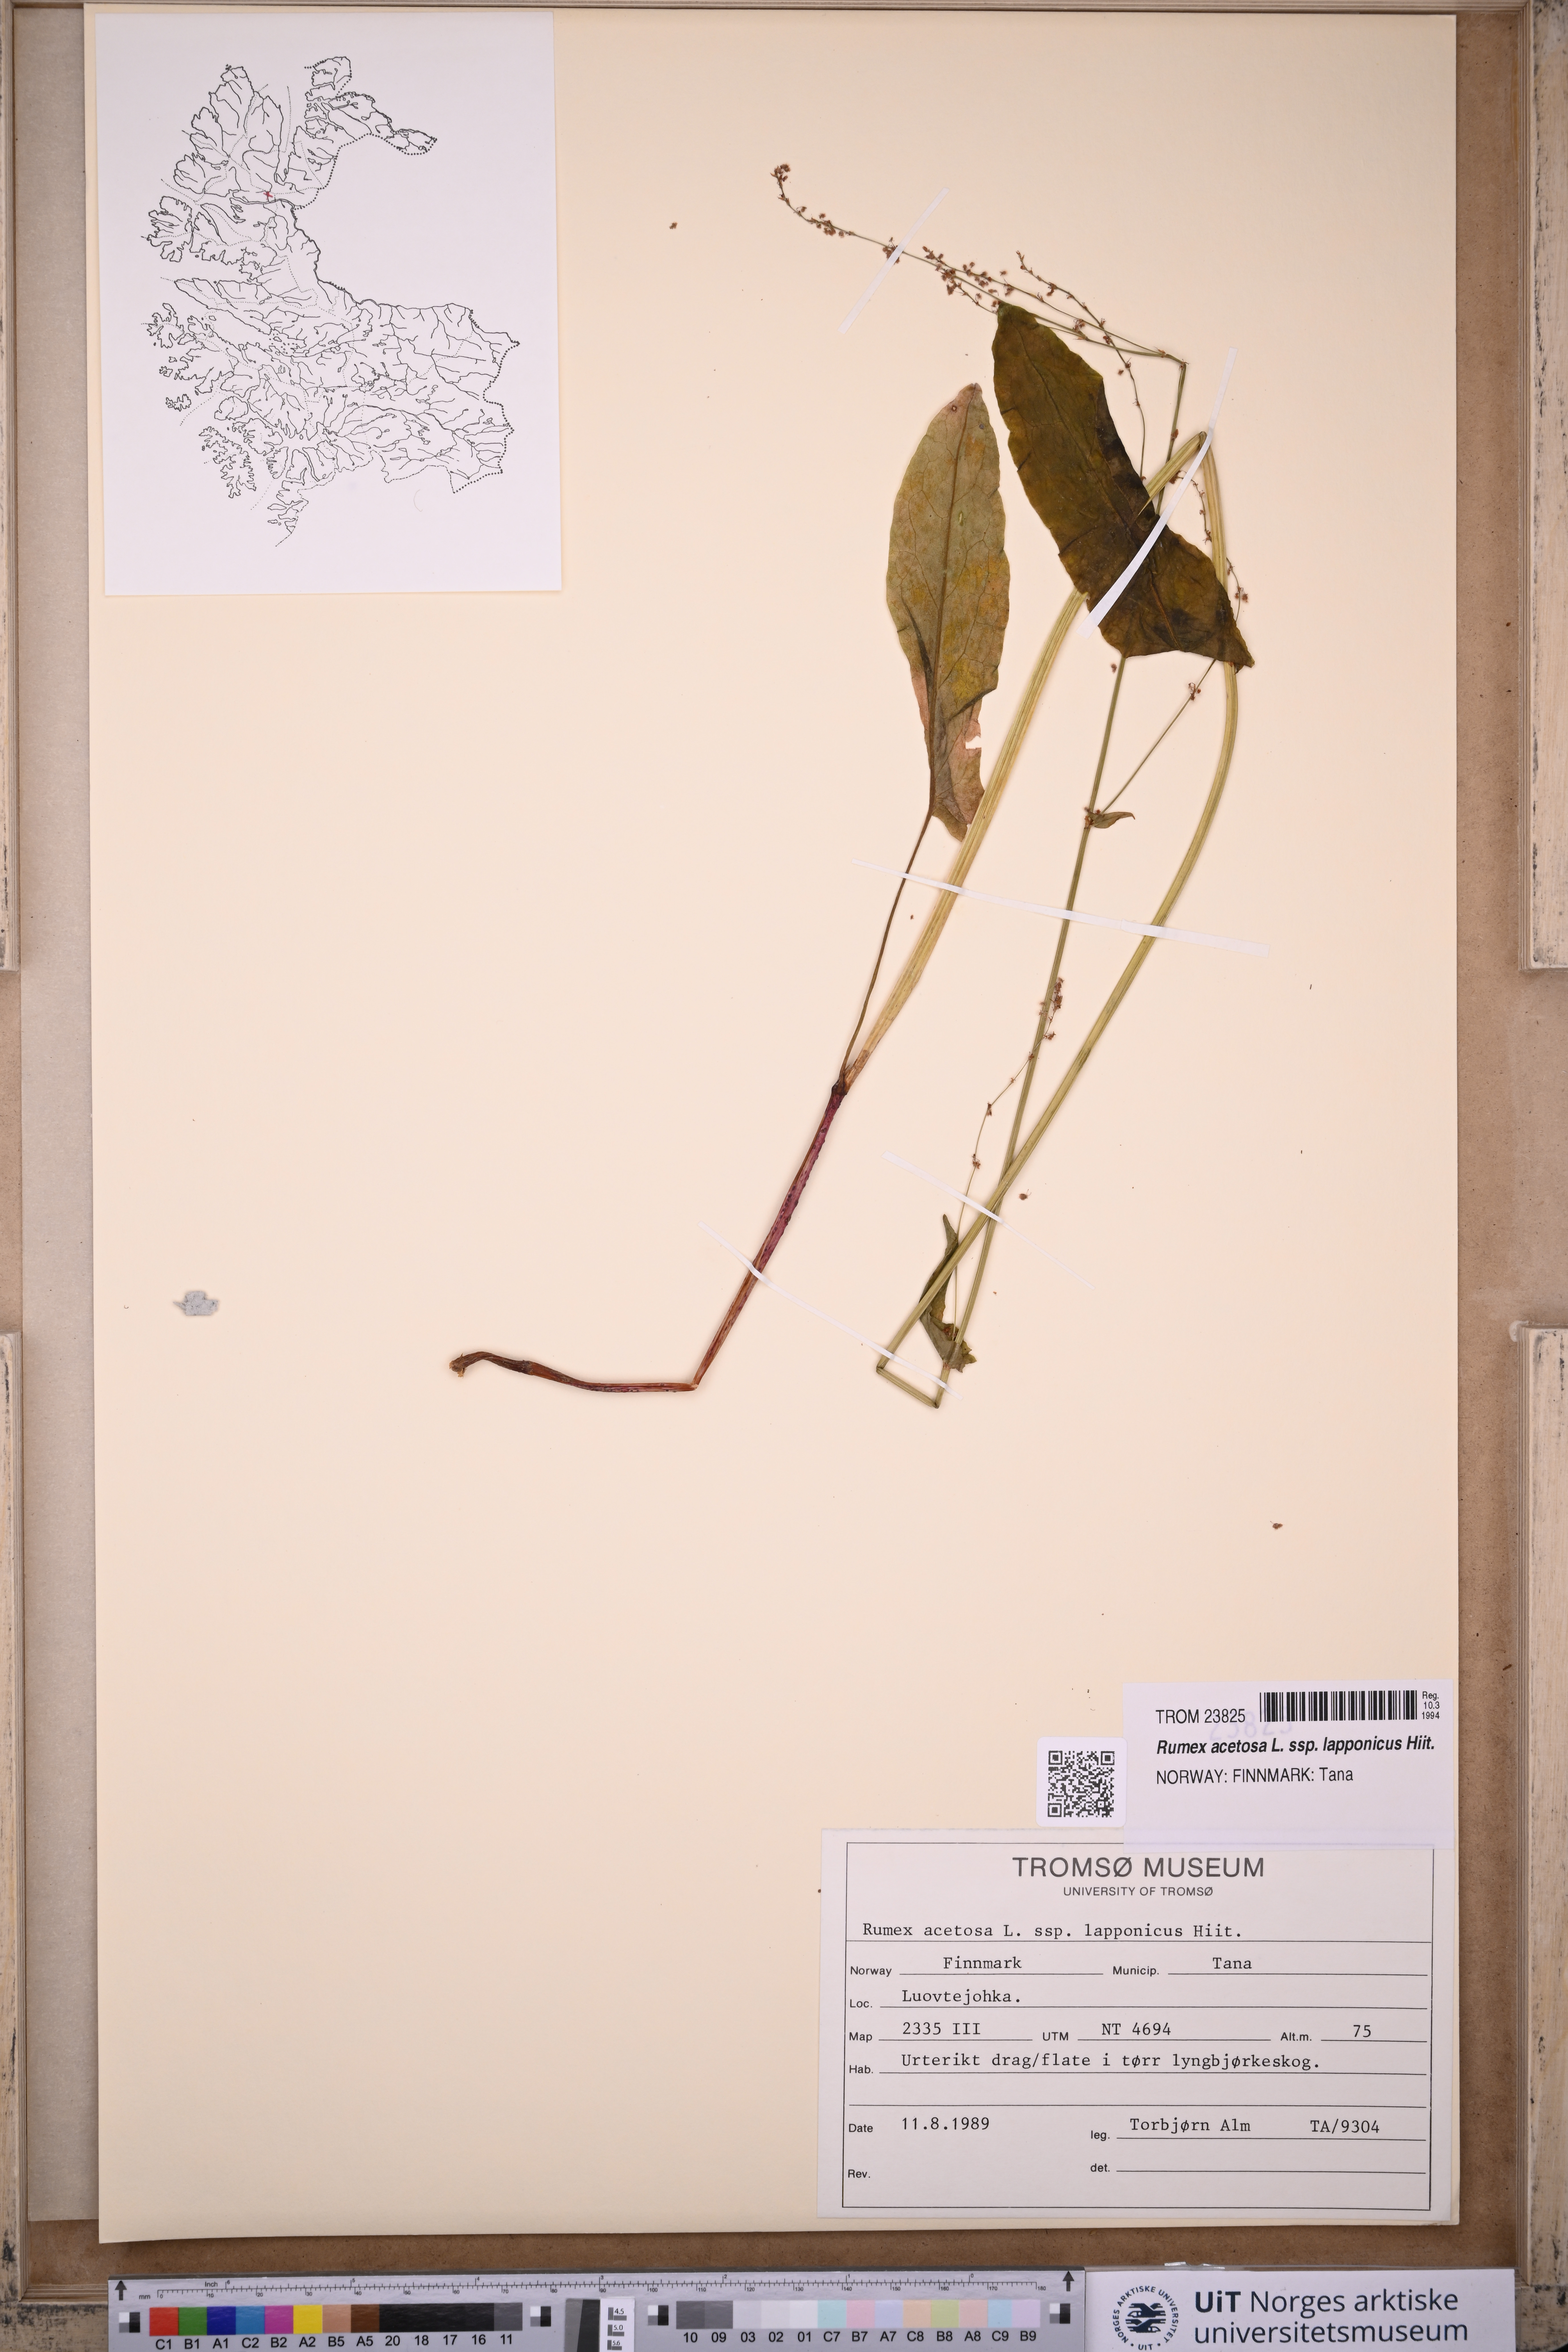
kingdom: Plantae
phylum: Tracheophyta
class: Magnoliopsida
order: Caryophyllales
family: Polygonaceae
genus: Rumex
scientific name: Rumex lapponicus
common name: Lapland mountain sorrel
